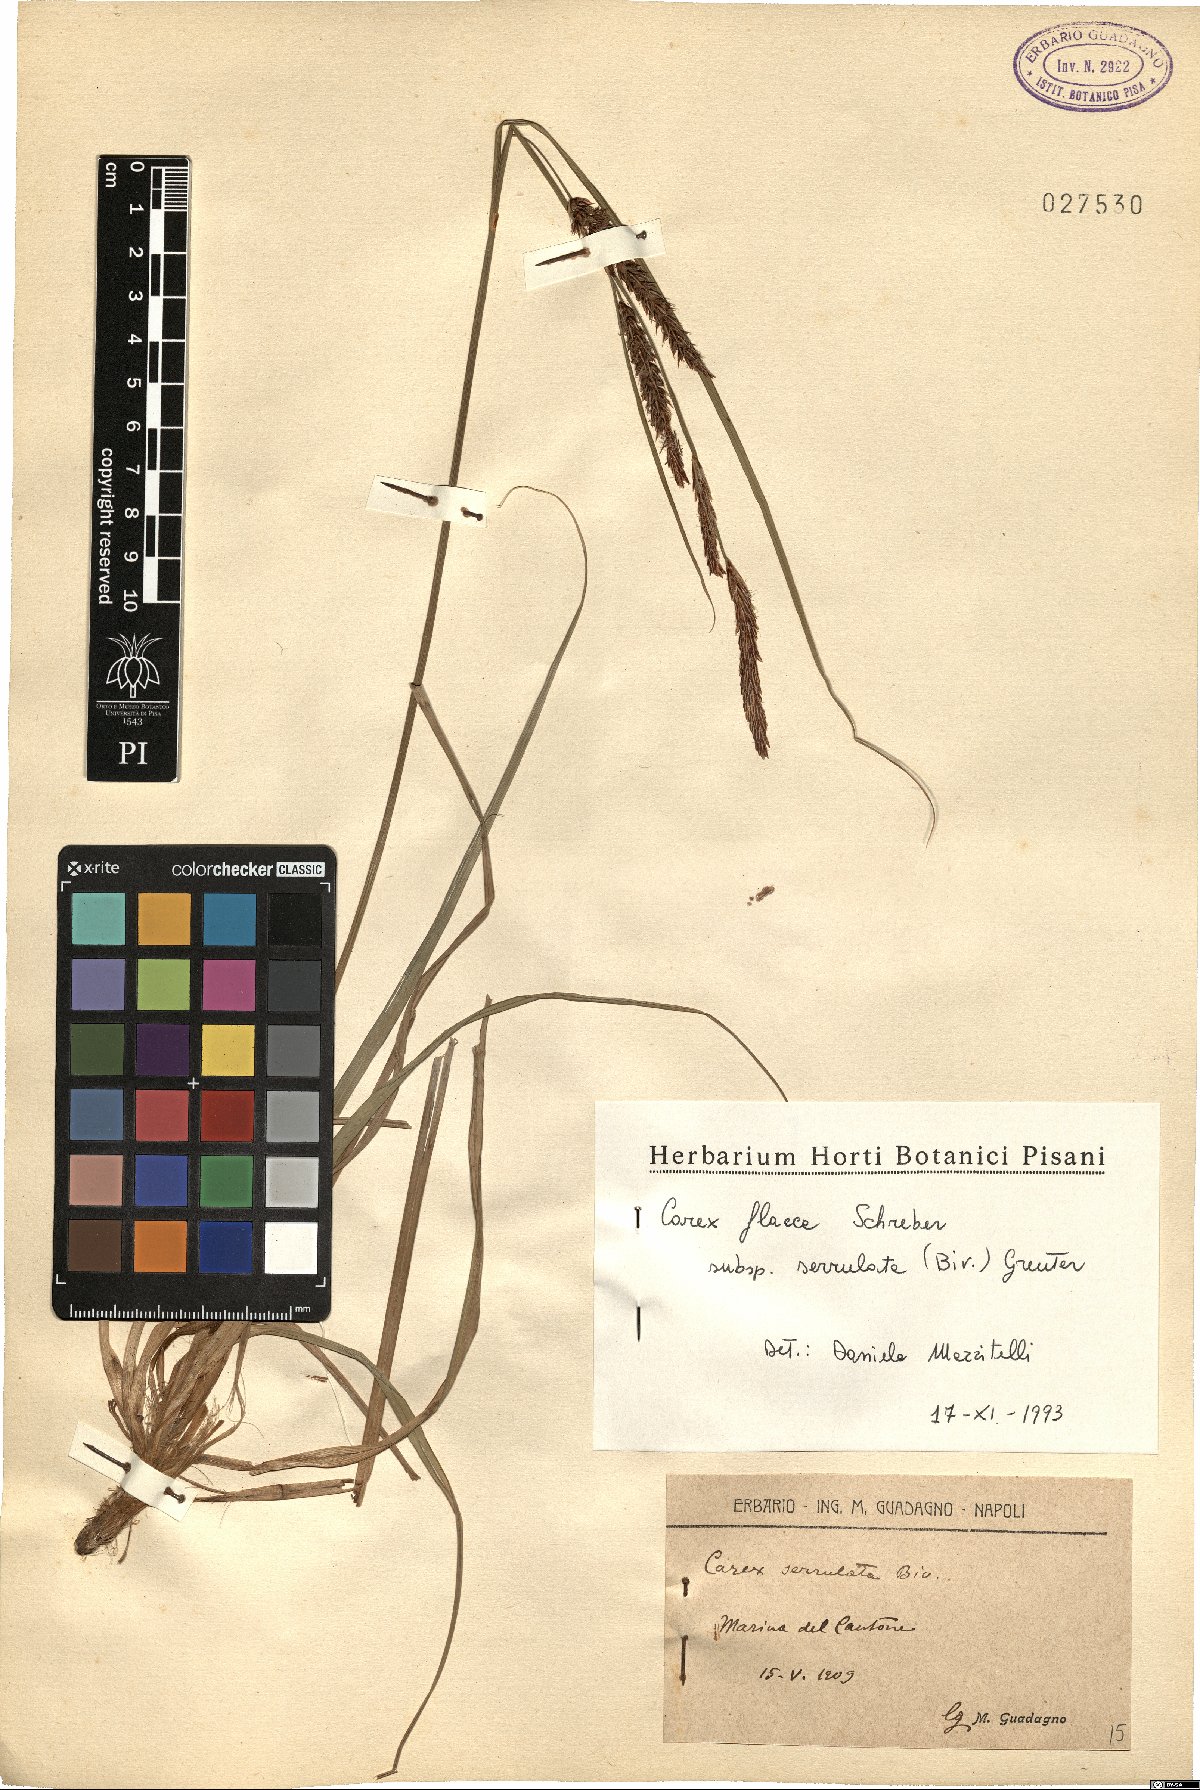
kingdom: Plantae
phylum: Tracheophyta
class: Liliopsida
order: Poales
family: Cyperaceae
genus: Carex
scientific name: Carex flacca
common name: Glaucous sedge
